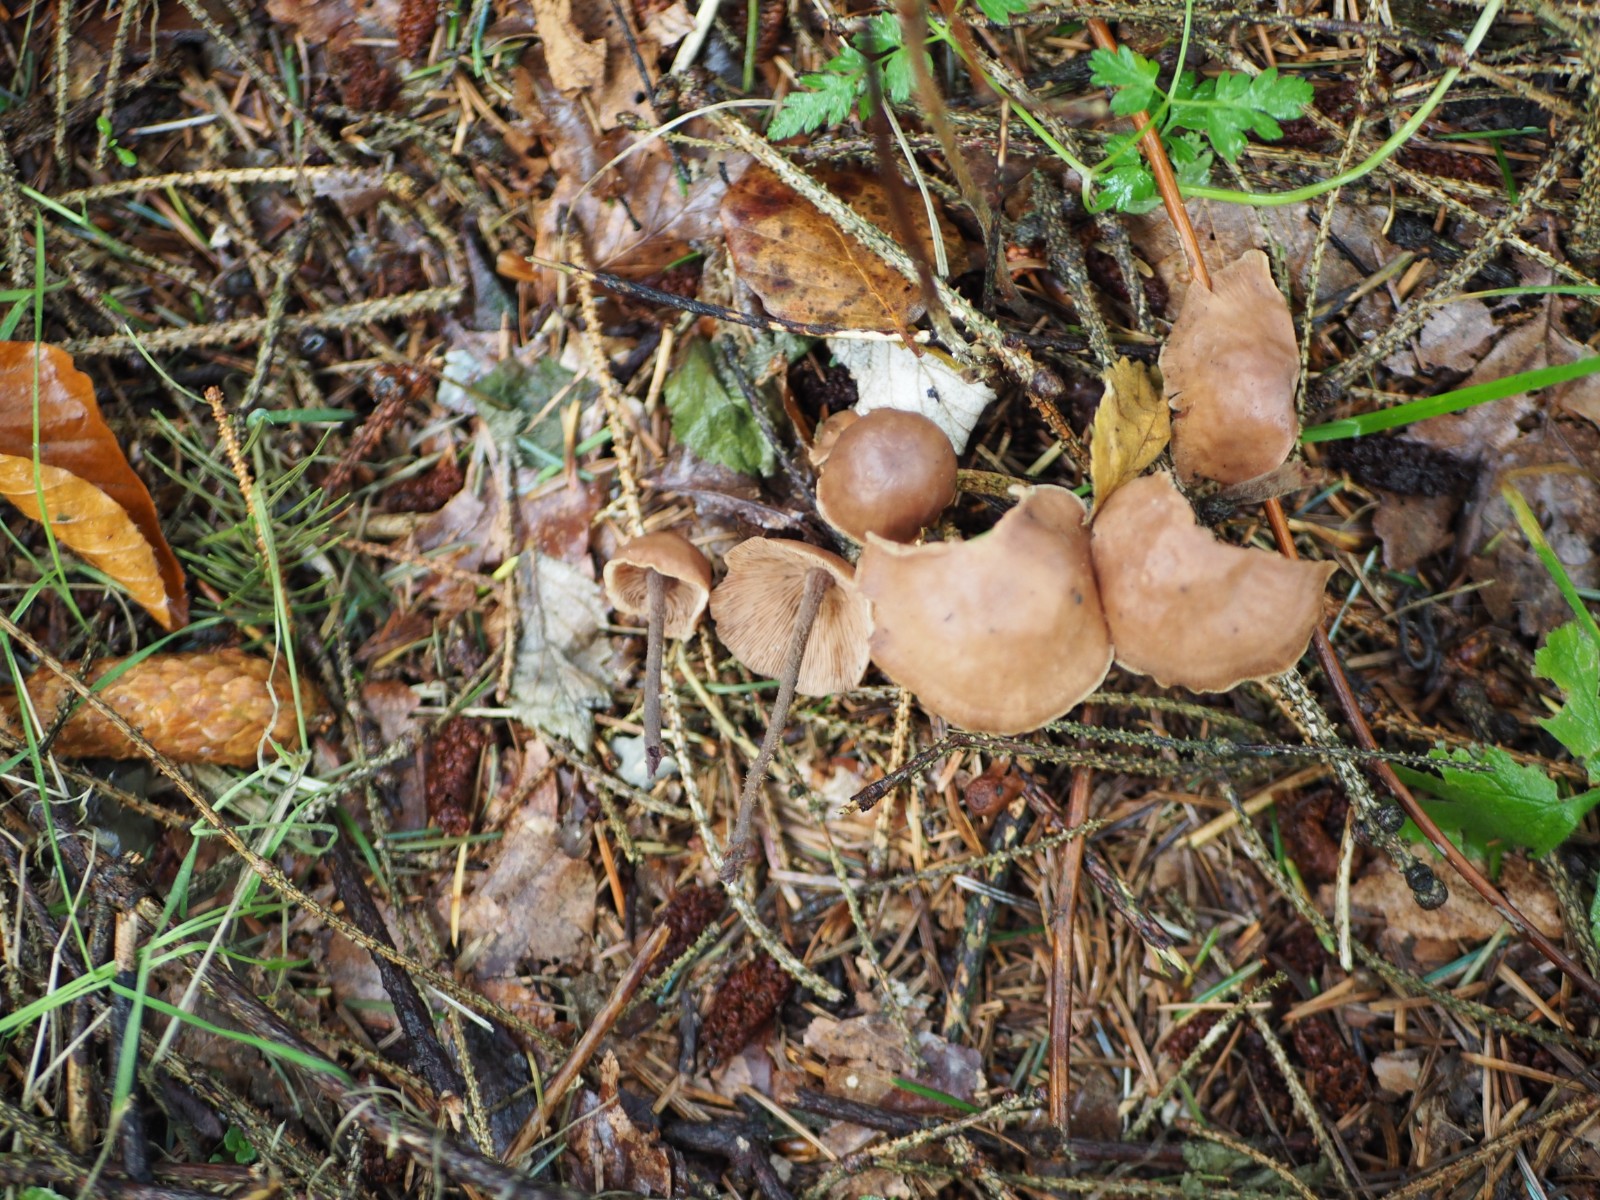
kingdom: Fungi
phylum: Basidiomycota
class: Agaricomycetes
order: Agaricales
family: Omphalotaceae
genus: Collybiopsis
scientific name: Collybiopsis confluens
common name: knippe-fladhat
